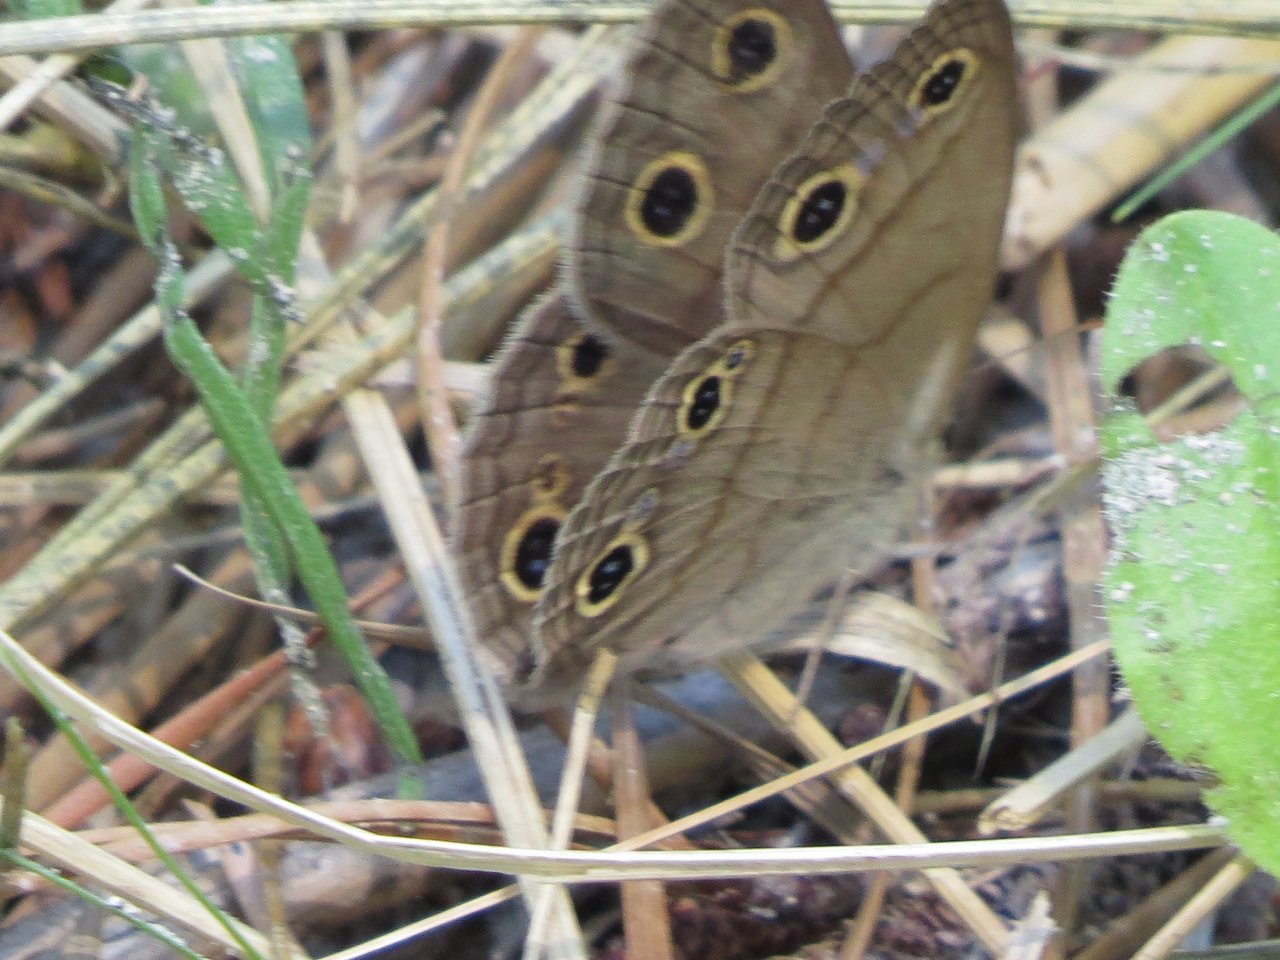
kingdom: Animalia
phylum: Arthropoda
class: Insecta
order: Lepidoptera
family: Nymphalidae
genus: Euptychia
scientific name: Euptychia cymela
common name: Little Wood Satyr
